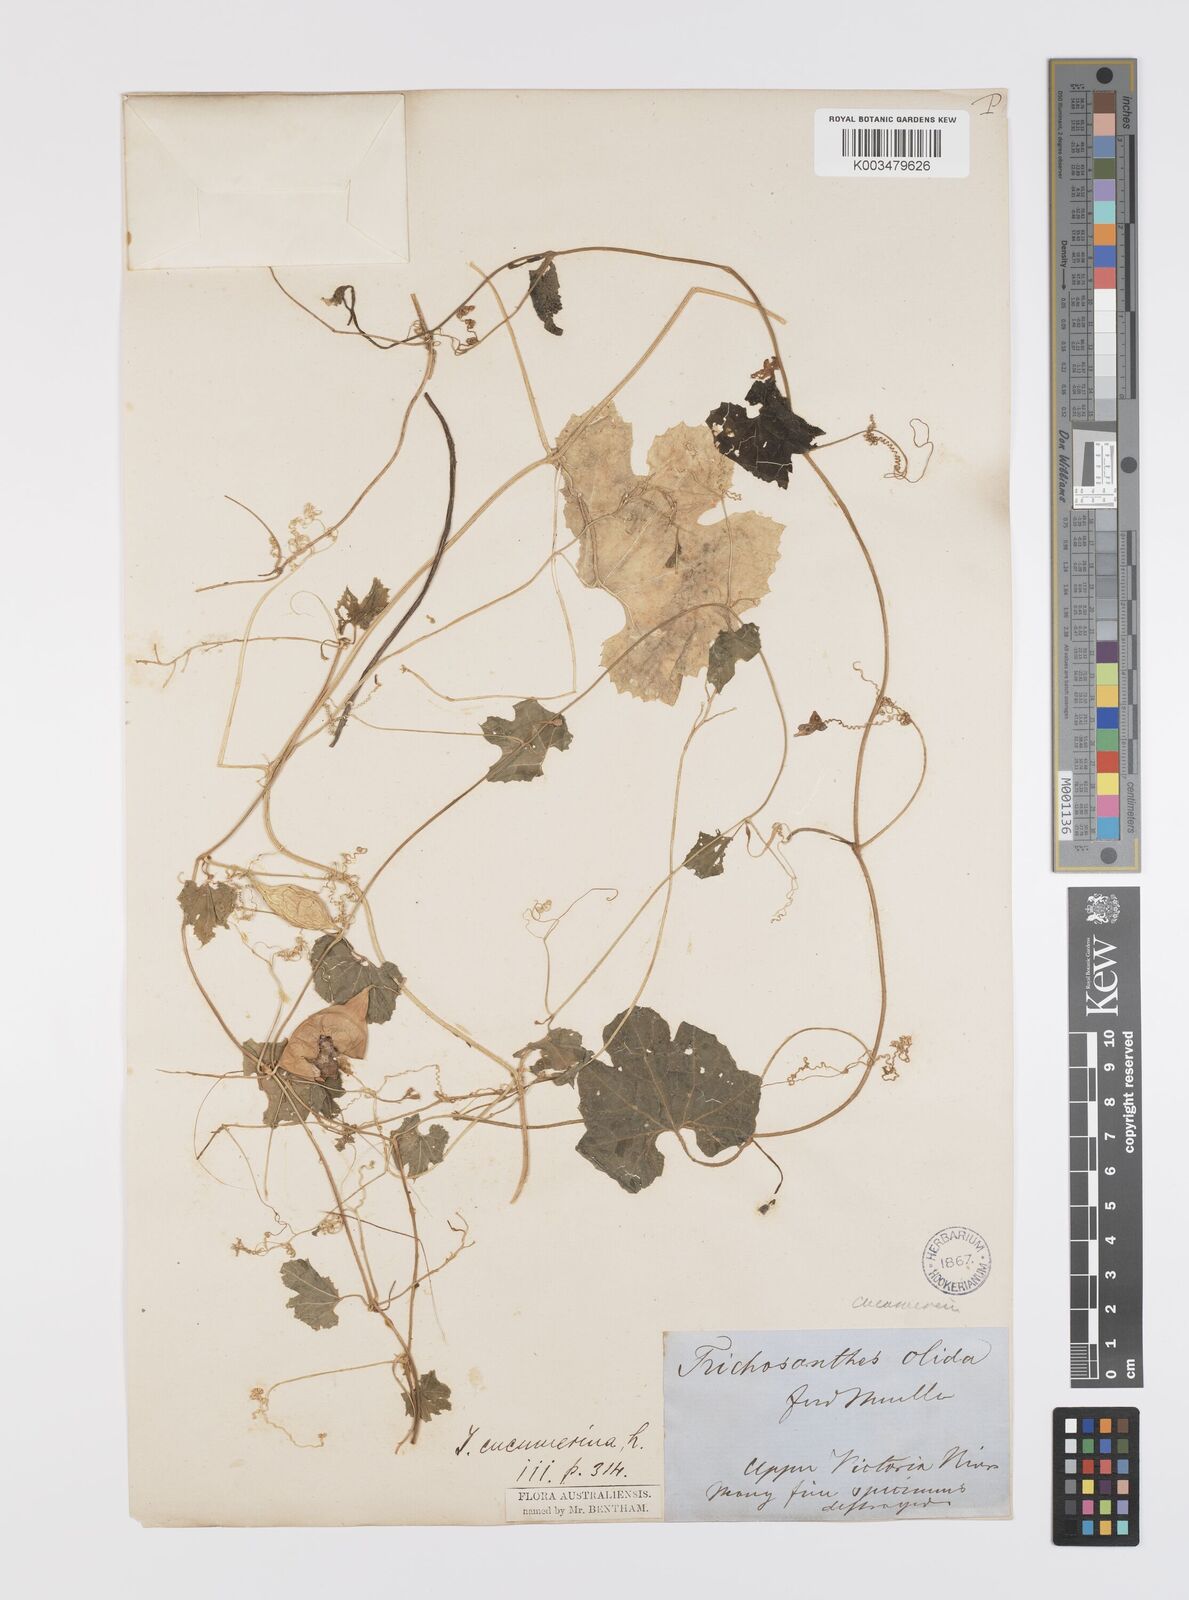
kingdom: Plantae
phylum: Tracheophyta
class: Magnoliopsida
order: Cucurbitales
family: Cucurbitaceae
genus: Trichosanthes
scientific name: Trichosanthes cucumerina
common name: Snakegourd
